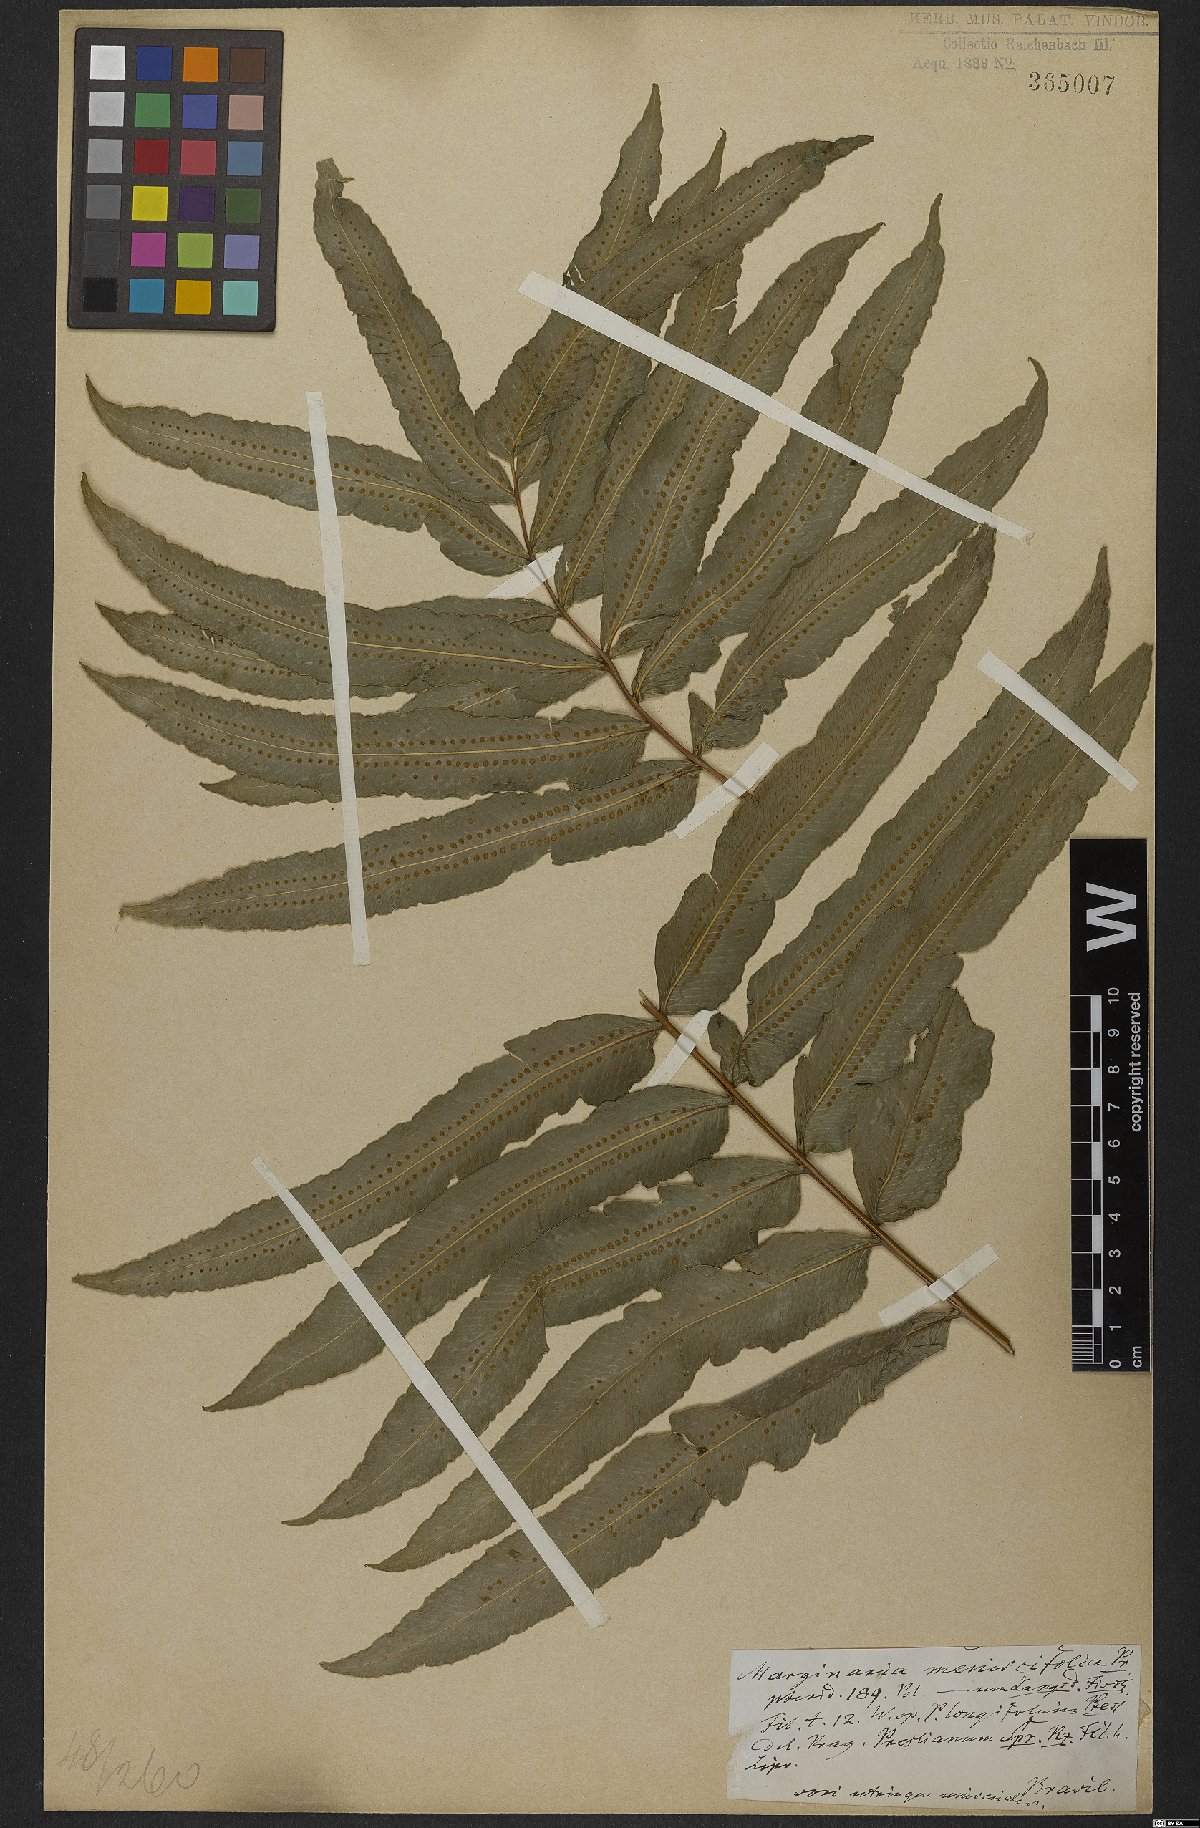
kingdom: Plantae
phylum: Tracheophyta
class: Polypodiopsida
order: Polypodiales
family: Polypodiaceae
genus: Serpocaulon
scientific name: Serpocaulon triseriale
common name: Angle-vein fern
